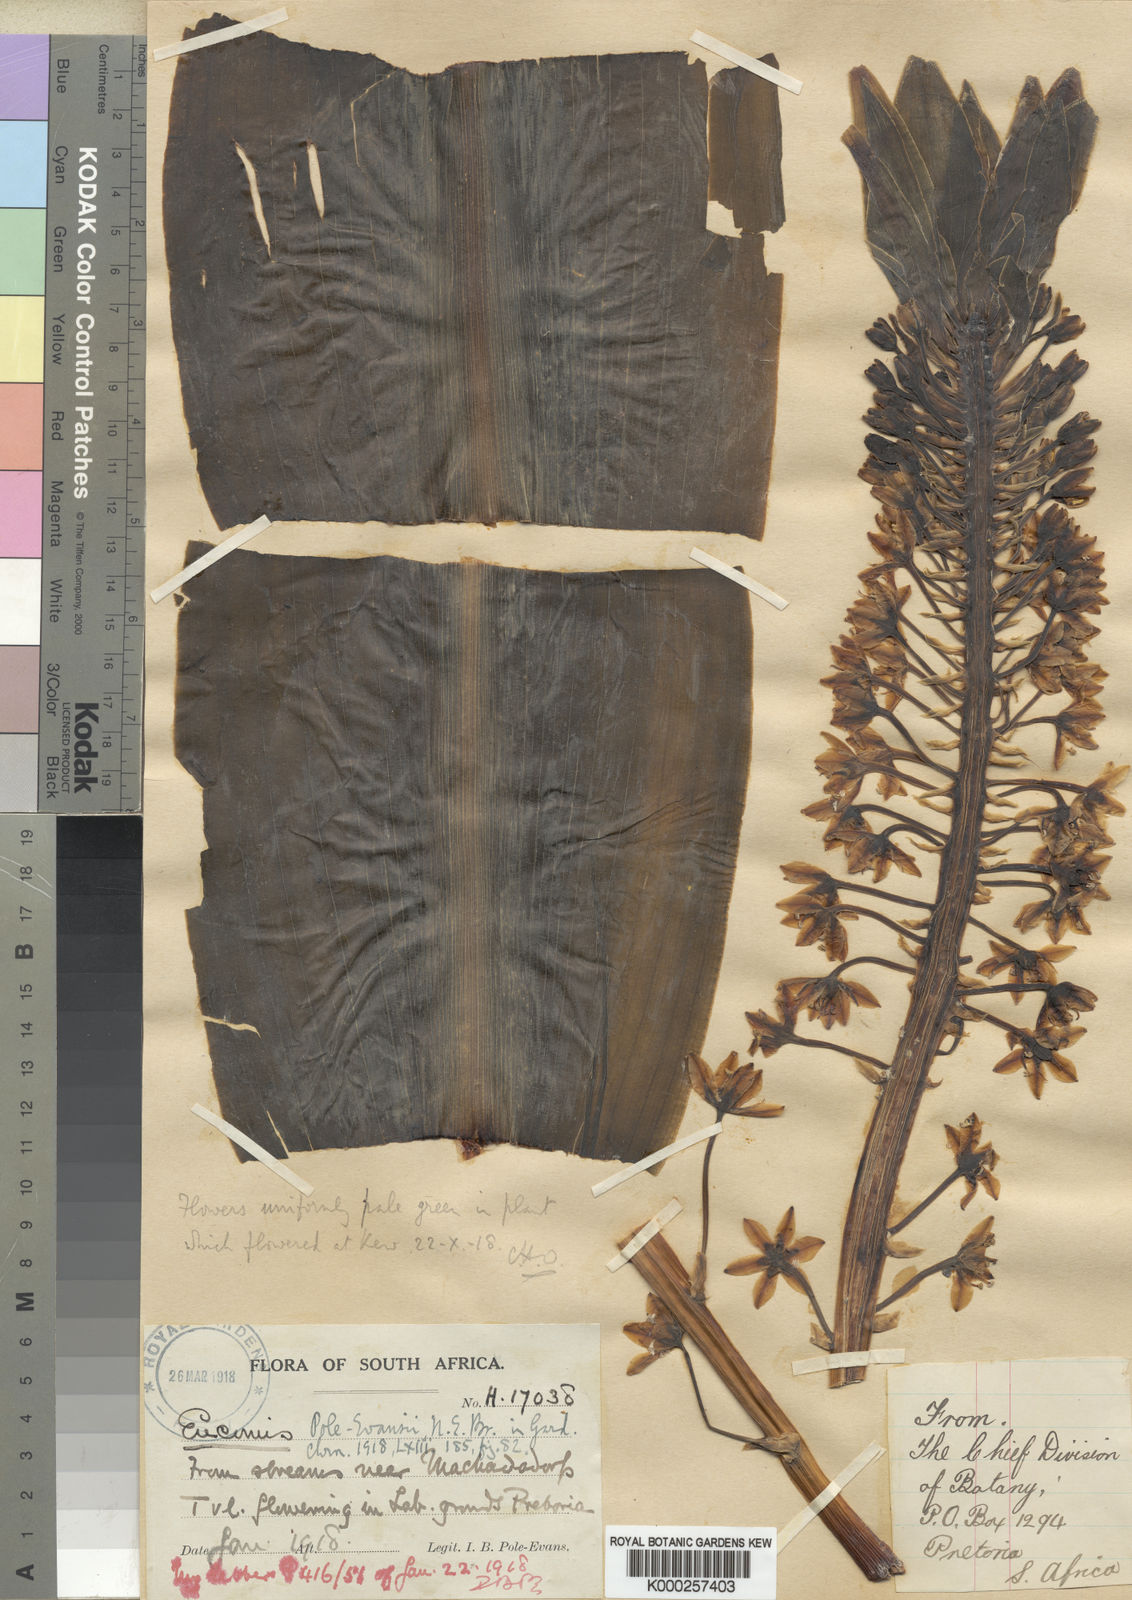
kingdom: Plantae
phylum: Tracheophyta
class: Liliopsida
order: Asparagales
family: Asparagaceae
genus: Eucomis
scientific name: Eucomis pallidiflora
